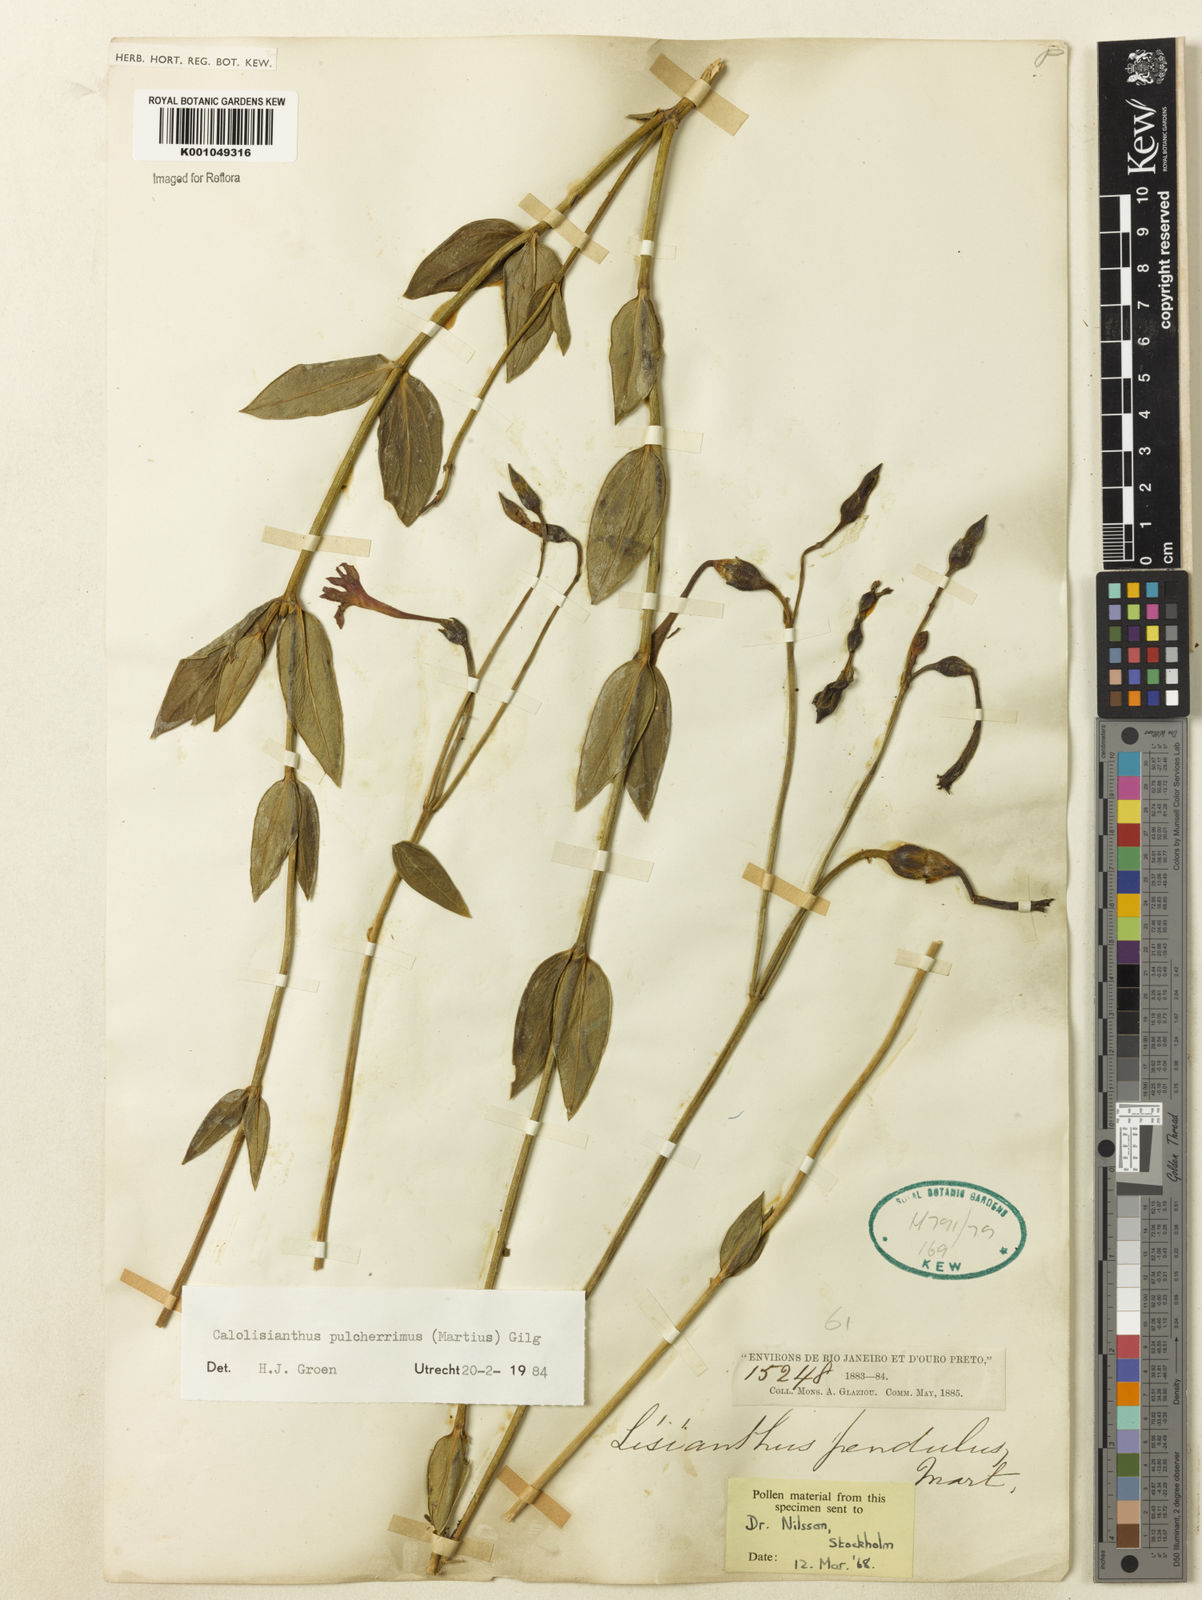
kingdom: Plantae
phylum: Tracheophyta
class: Magnoliopsida
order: Gentianales
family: Gentianaceae
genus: Calolisianthus
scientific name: Calolisianthus pulcherrimus
